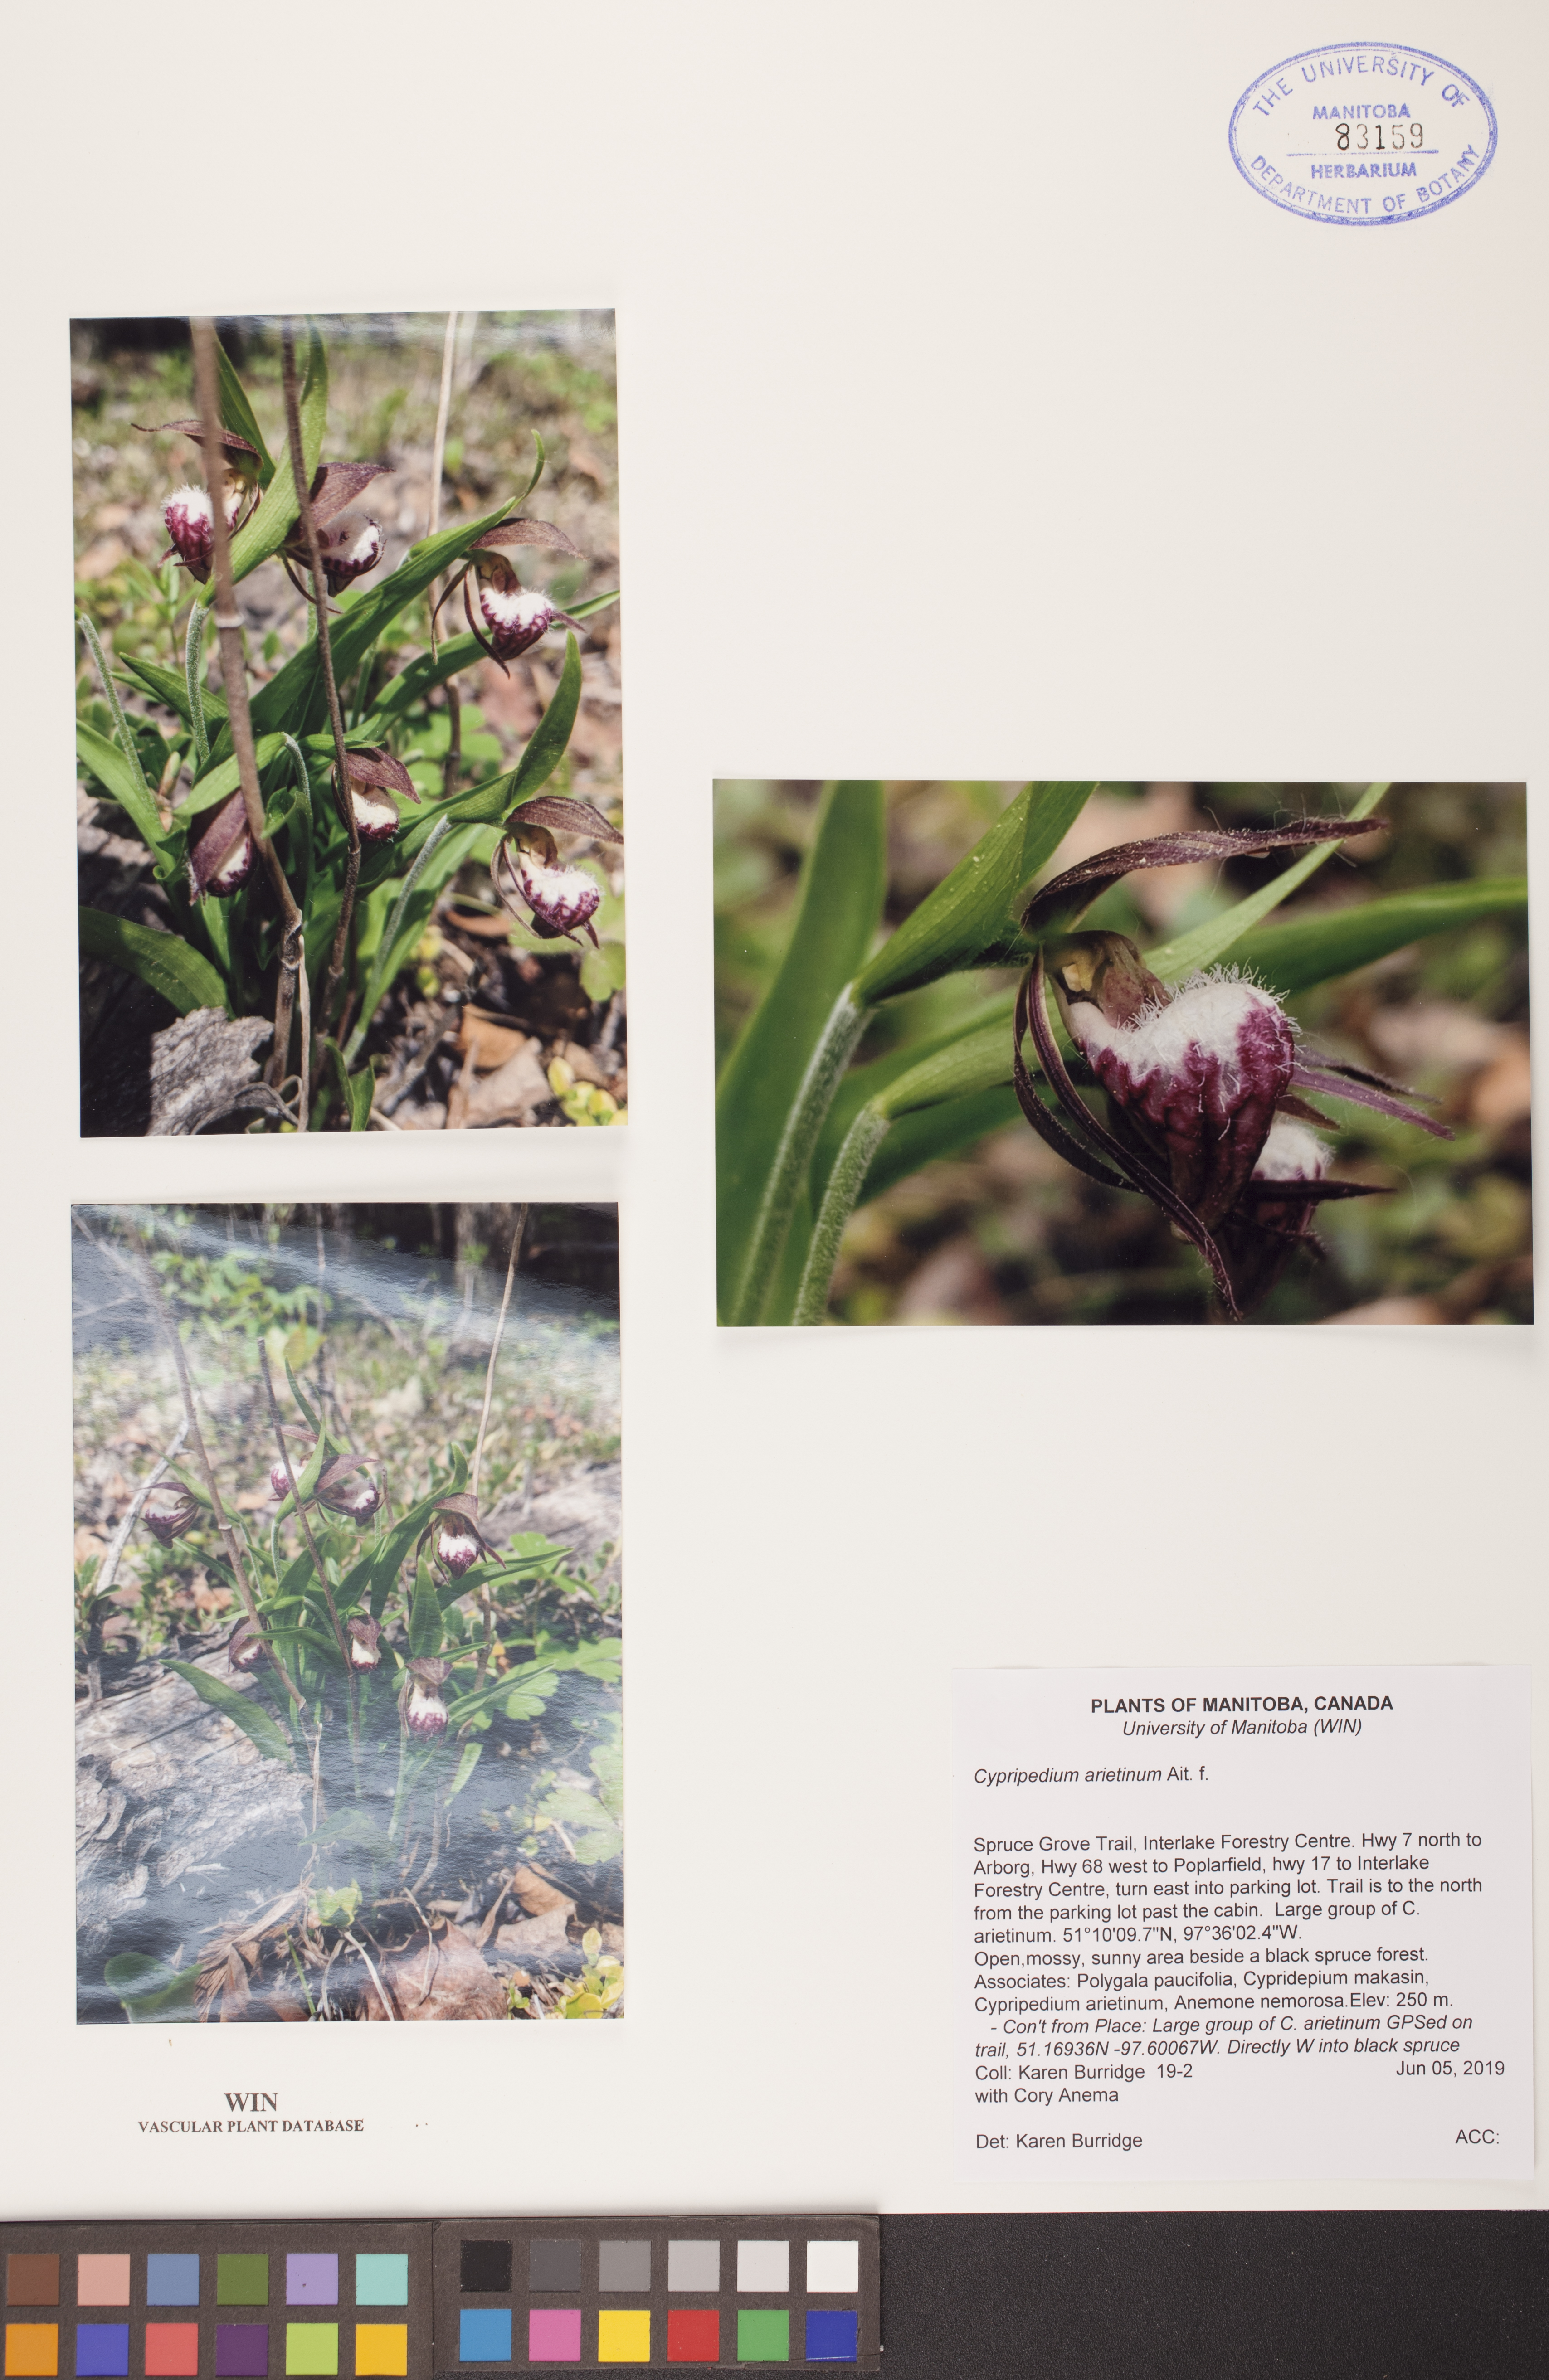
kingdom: Plantae
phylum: Tracheophyta
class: Liliopsida
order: Asparagales
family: Orchidaceae
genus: Cypripedium
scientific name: Cypripedium arietinum
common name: Ram's-head
